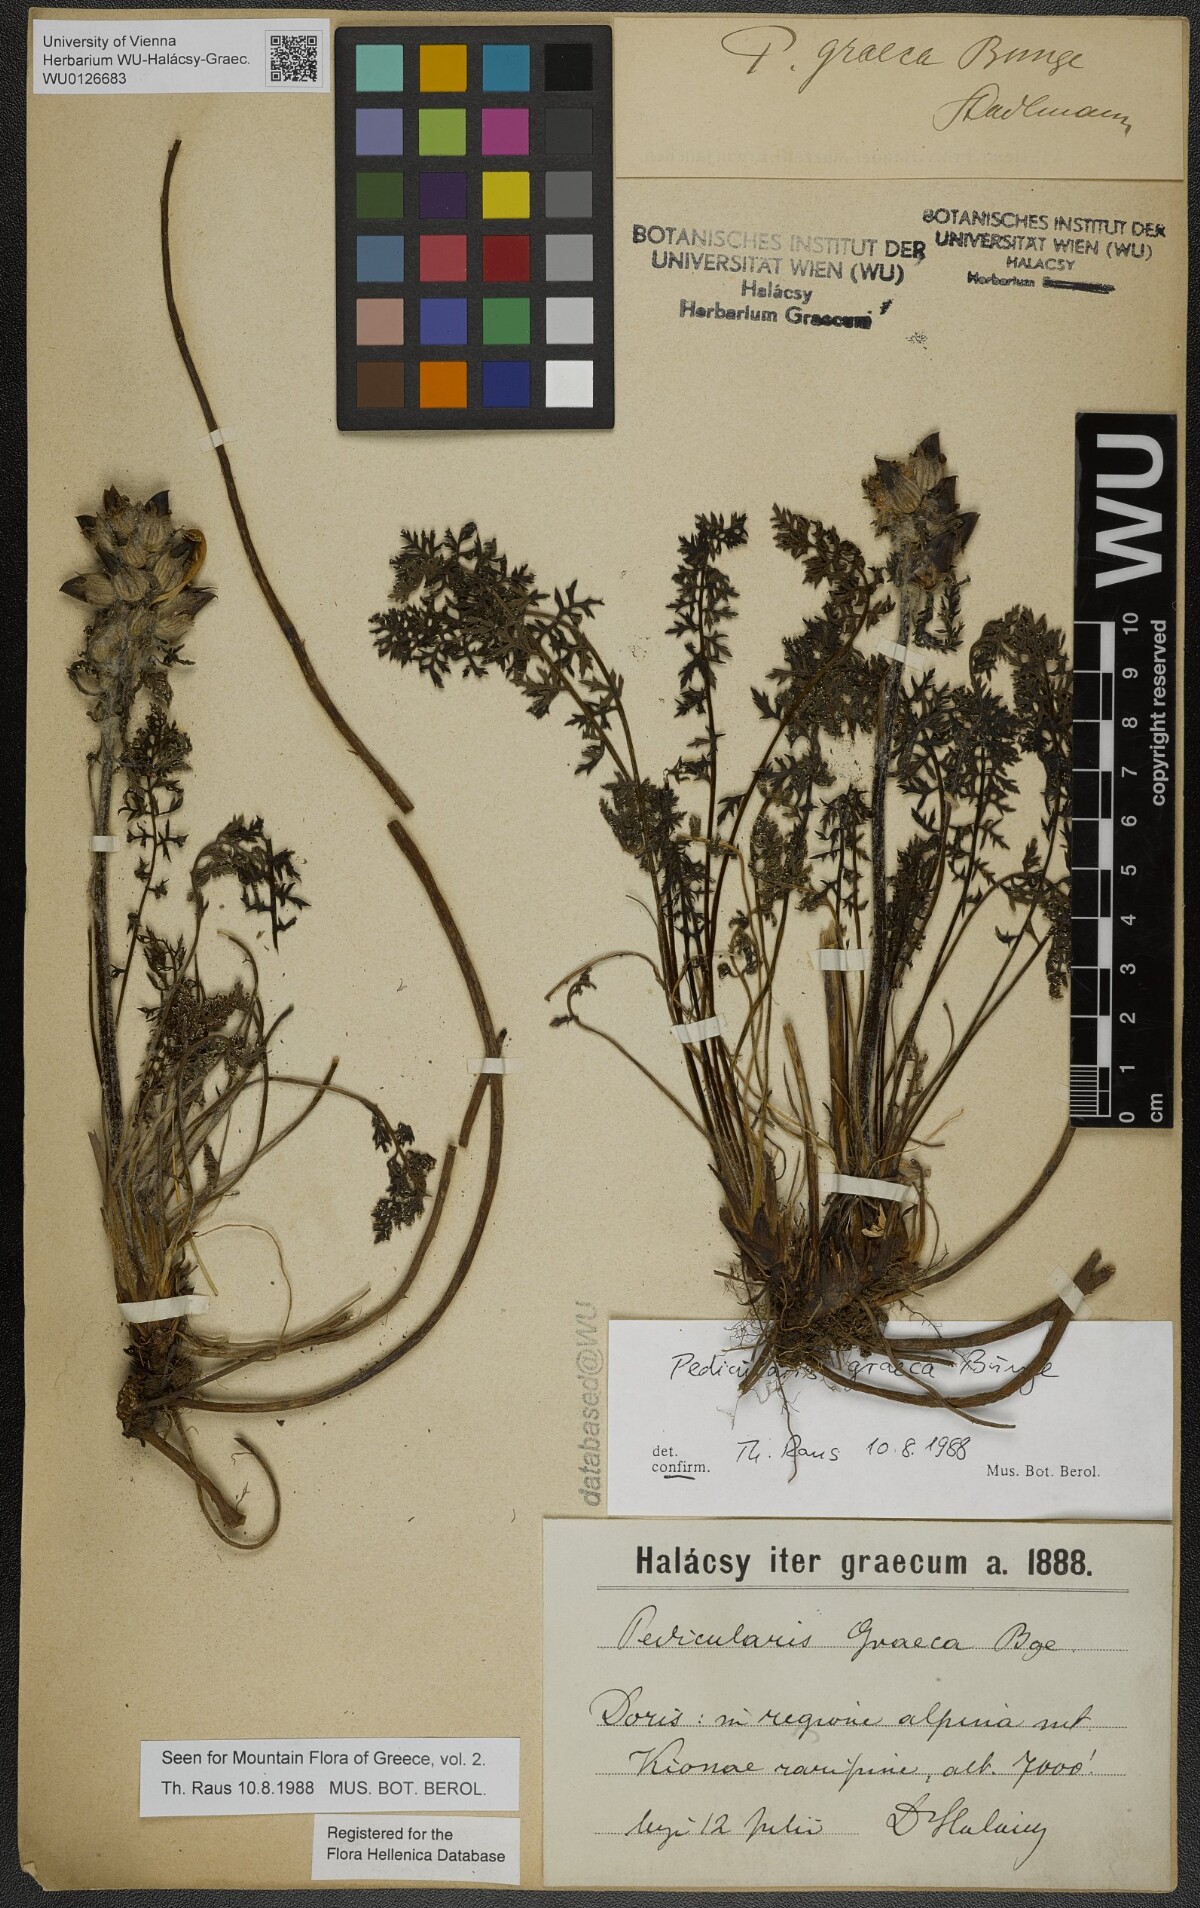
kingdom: Plantae
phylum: Tracheophyta
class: Magnoliopsida
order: Lamiales
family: Orobanchaceae
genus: Pedicularis
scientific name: Pedicularis graeca
